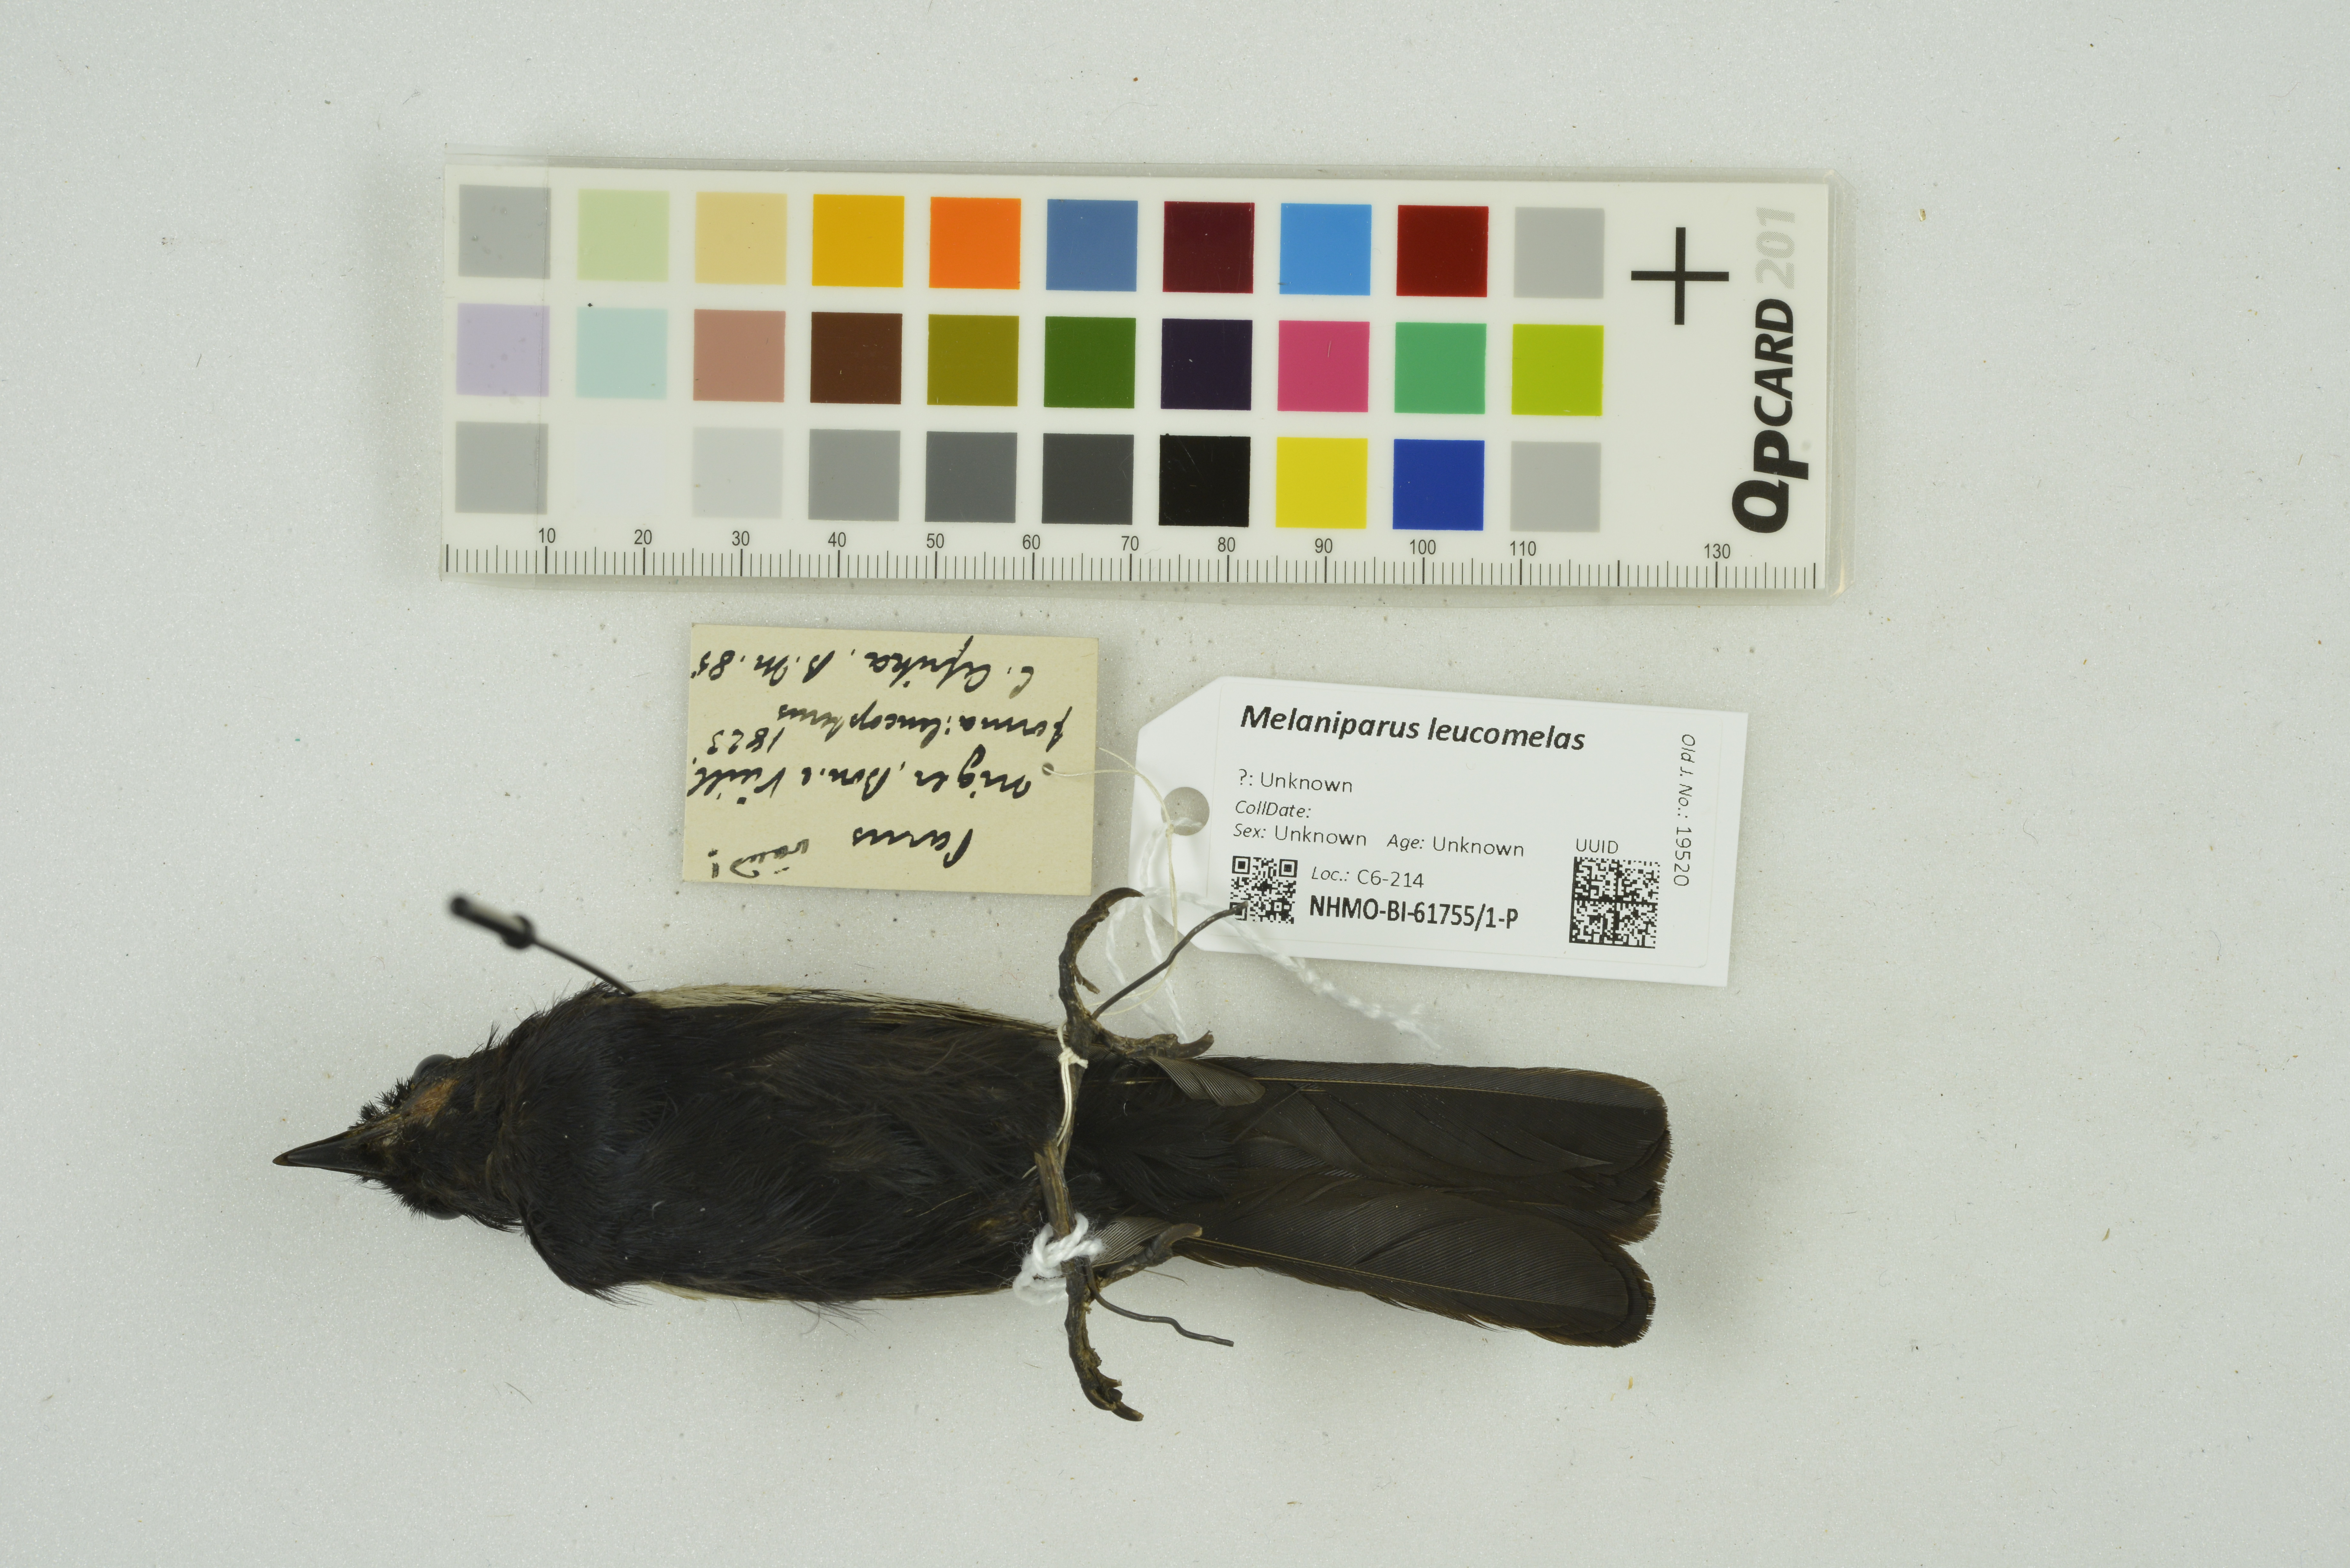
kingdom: Animalia
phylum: Chordata
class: Aves
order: Passeriformes
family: Paridae
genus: Parus
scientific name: Parus leucomelas
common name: White-winged black tit
